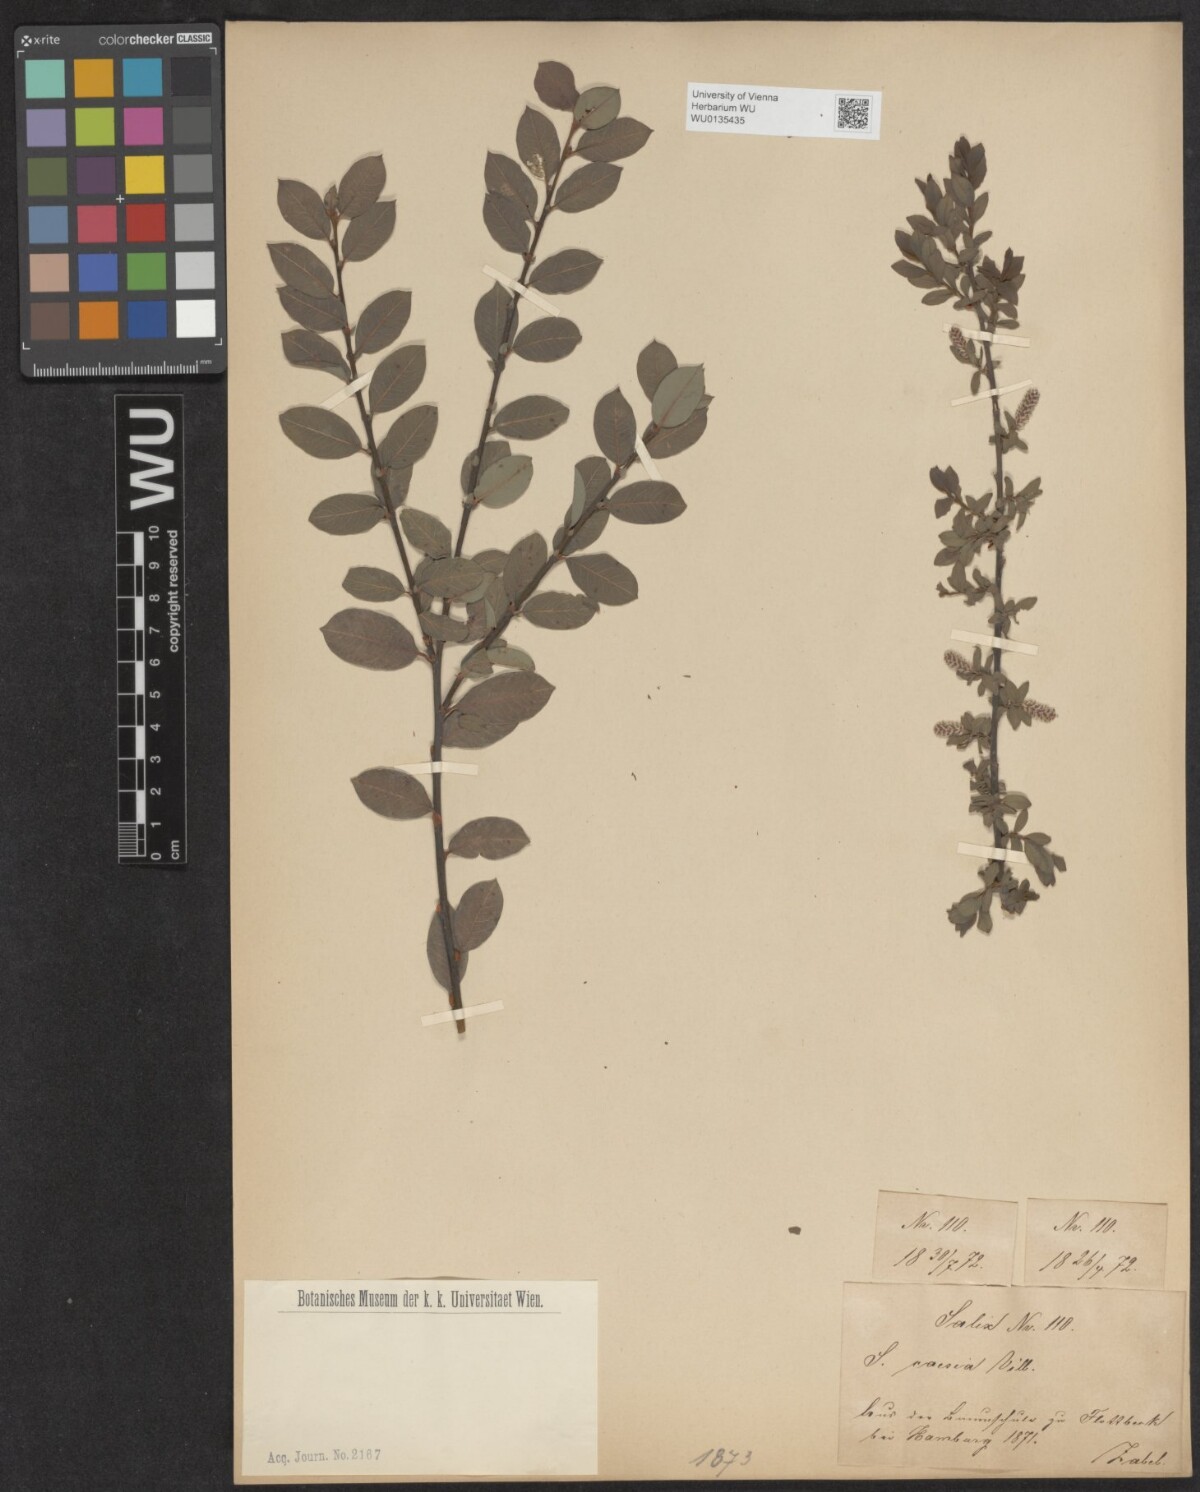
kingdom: Plantae
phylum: Tracheophyta
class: Magnoliopsida
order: Malpighiales
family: Salicaceae
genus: Salix
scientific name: Salix caesia
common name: Blue willow
